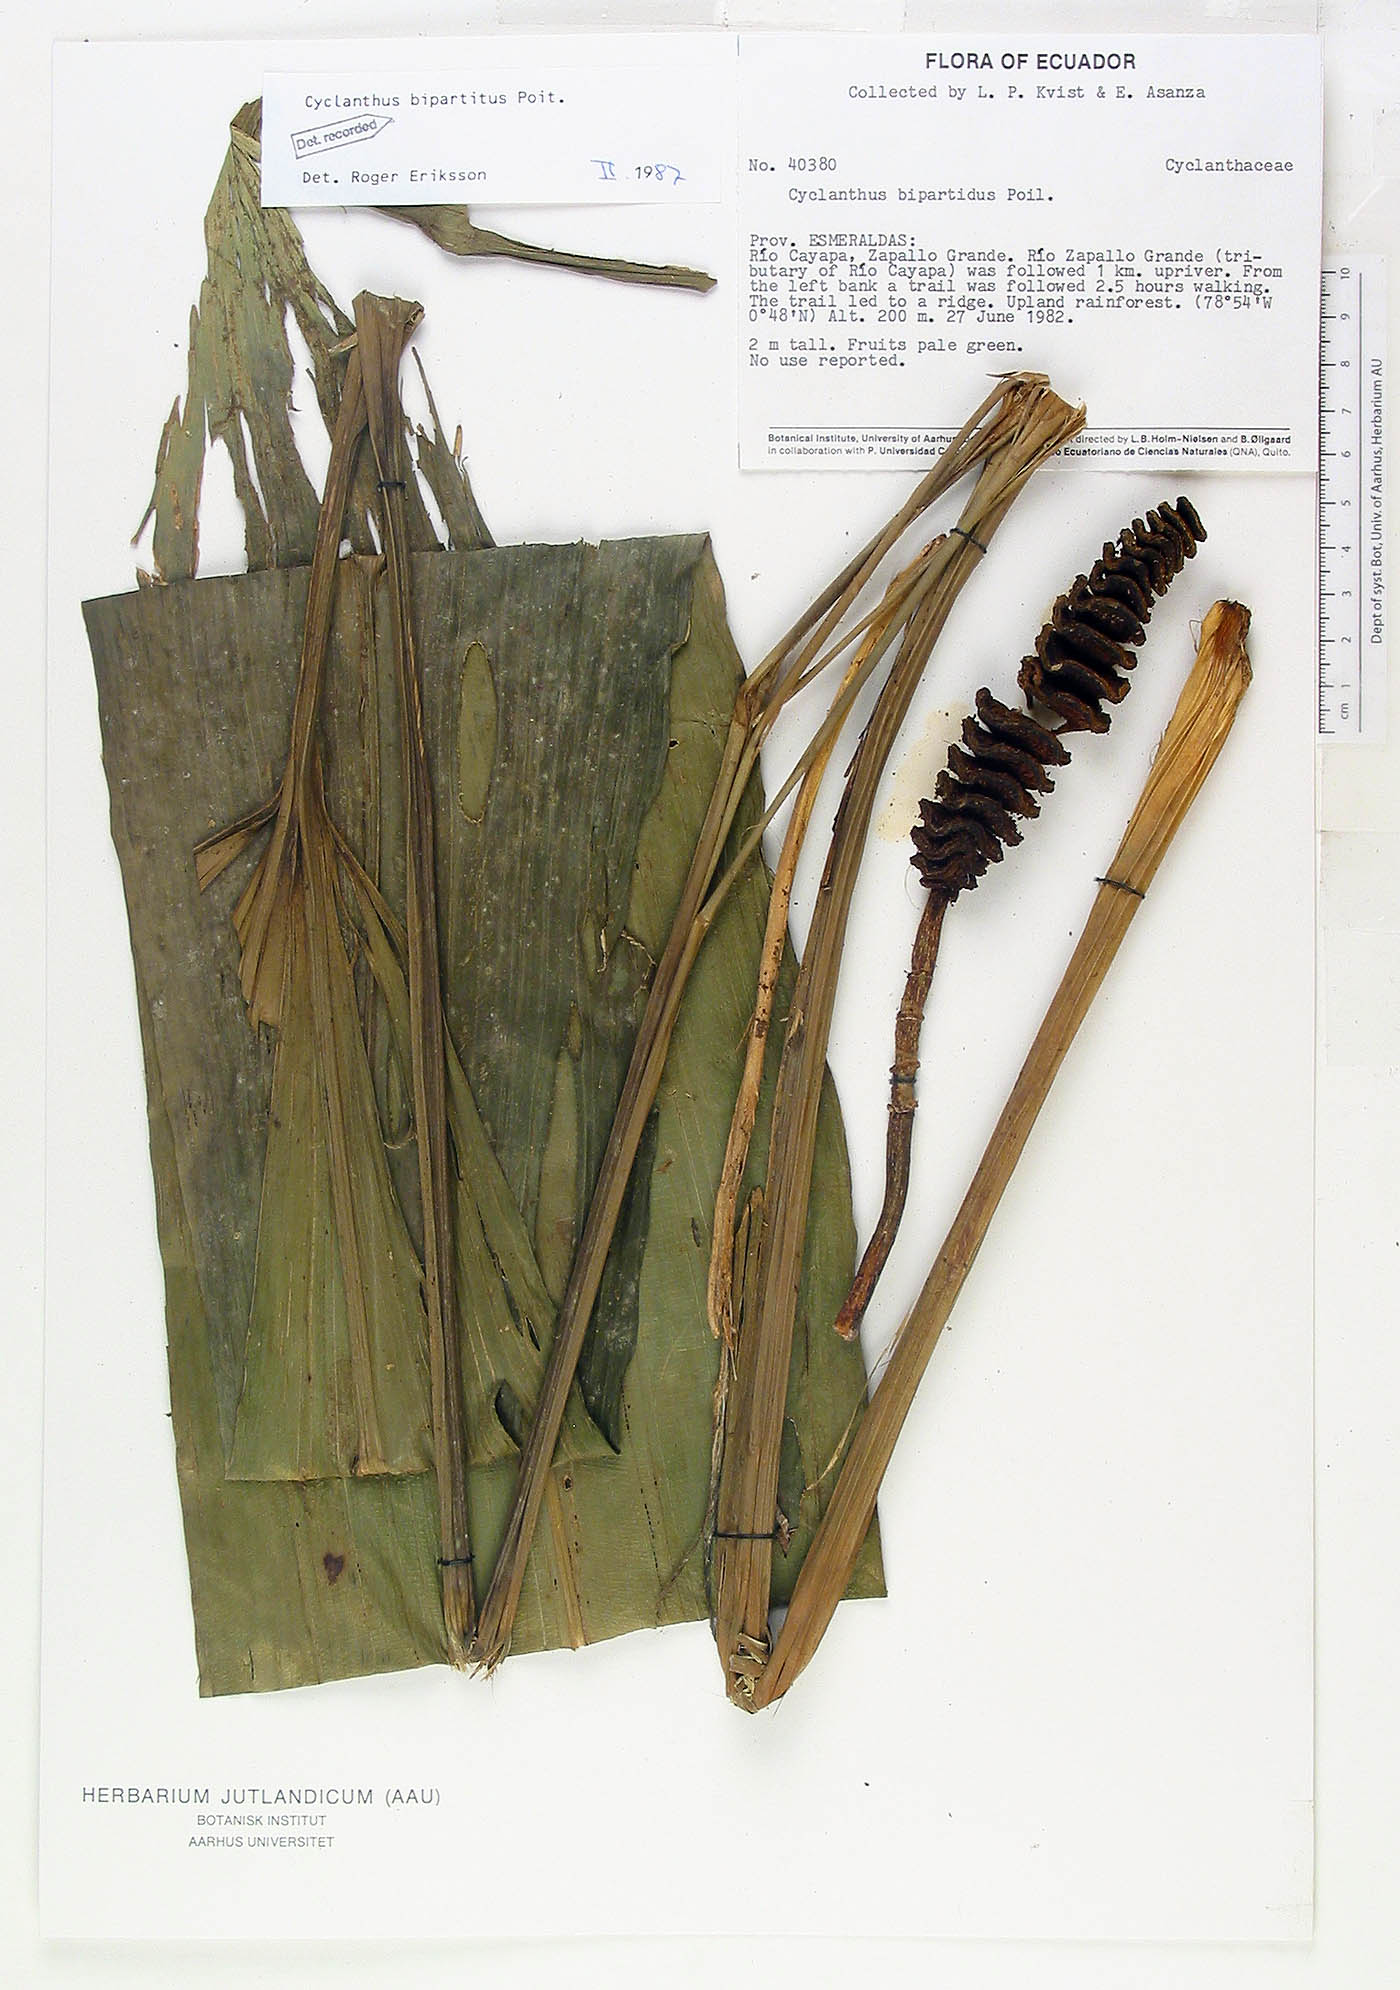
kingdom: Plantae
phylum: Tracheophyta
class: Liliopsida
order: Pandanales
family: Cyclanthaceae
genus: Cyclanthus
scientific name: Cyclanthus bipartitus
